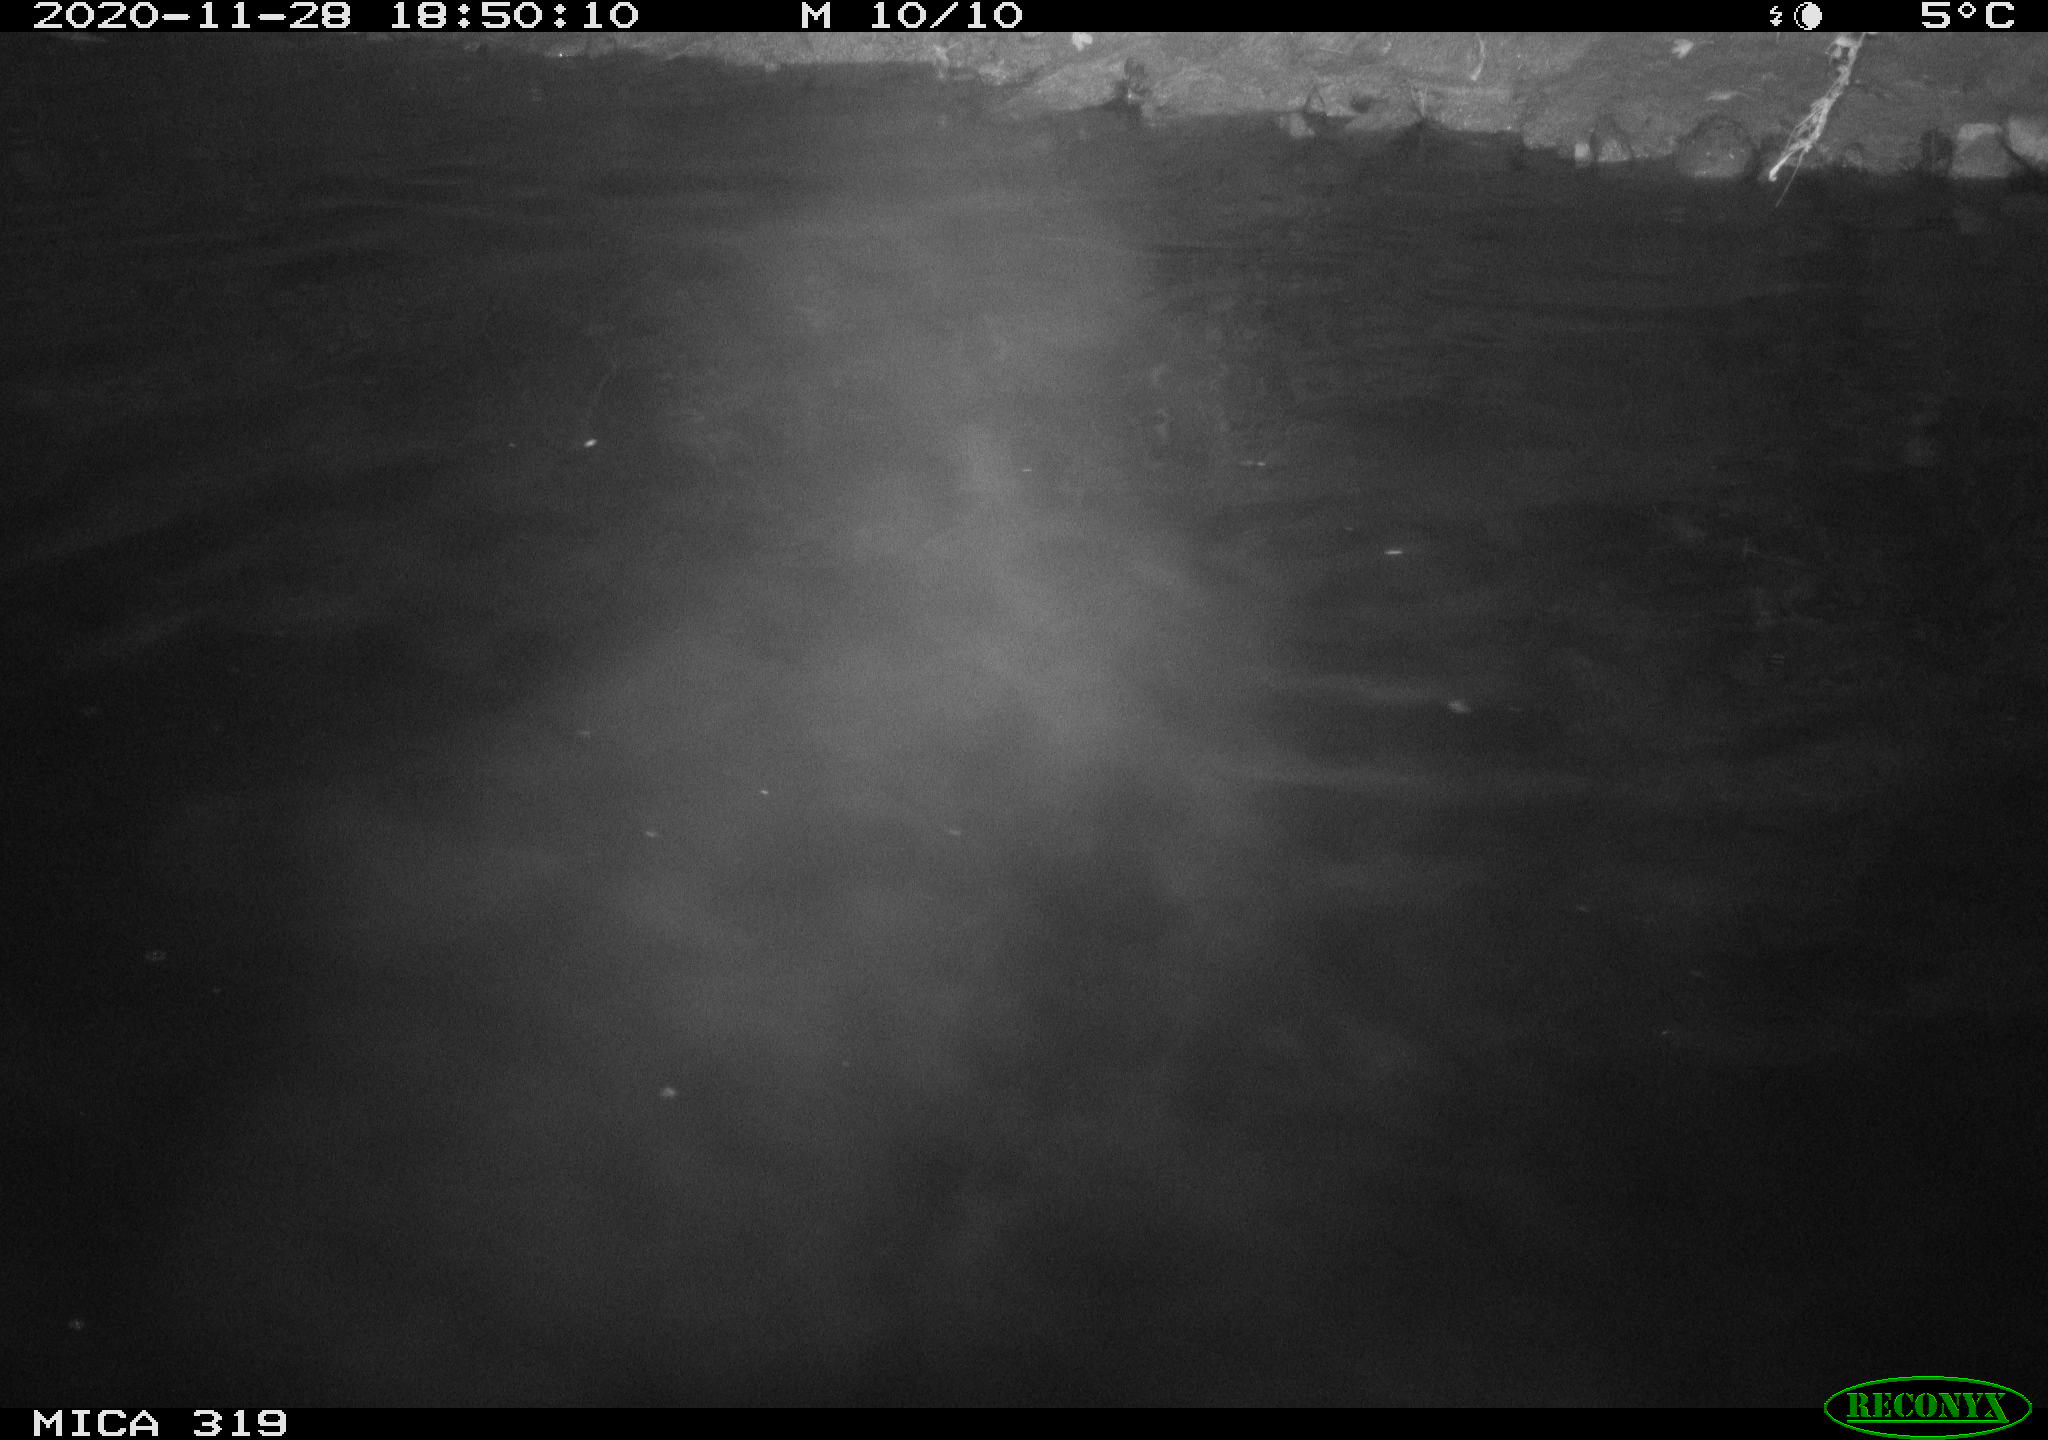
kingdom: Animalia
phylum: Chordata
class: Aves
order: Anseriformes
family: Anatidae
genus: Anas
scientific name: Anas platyrhynchos
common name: Mallard
